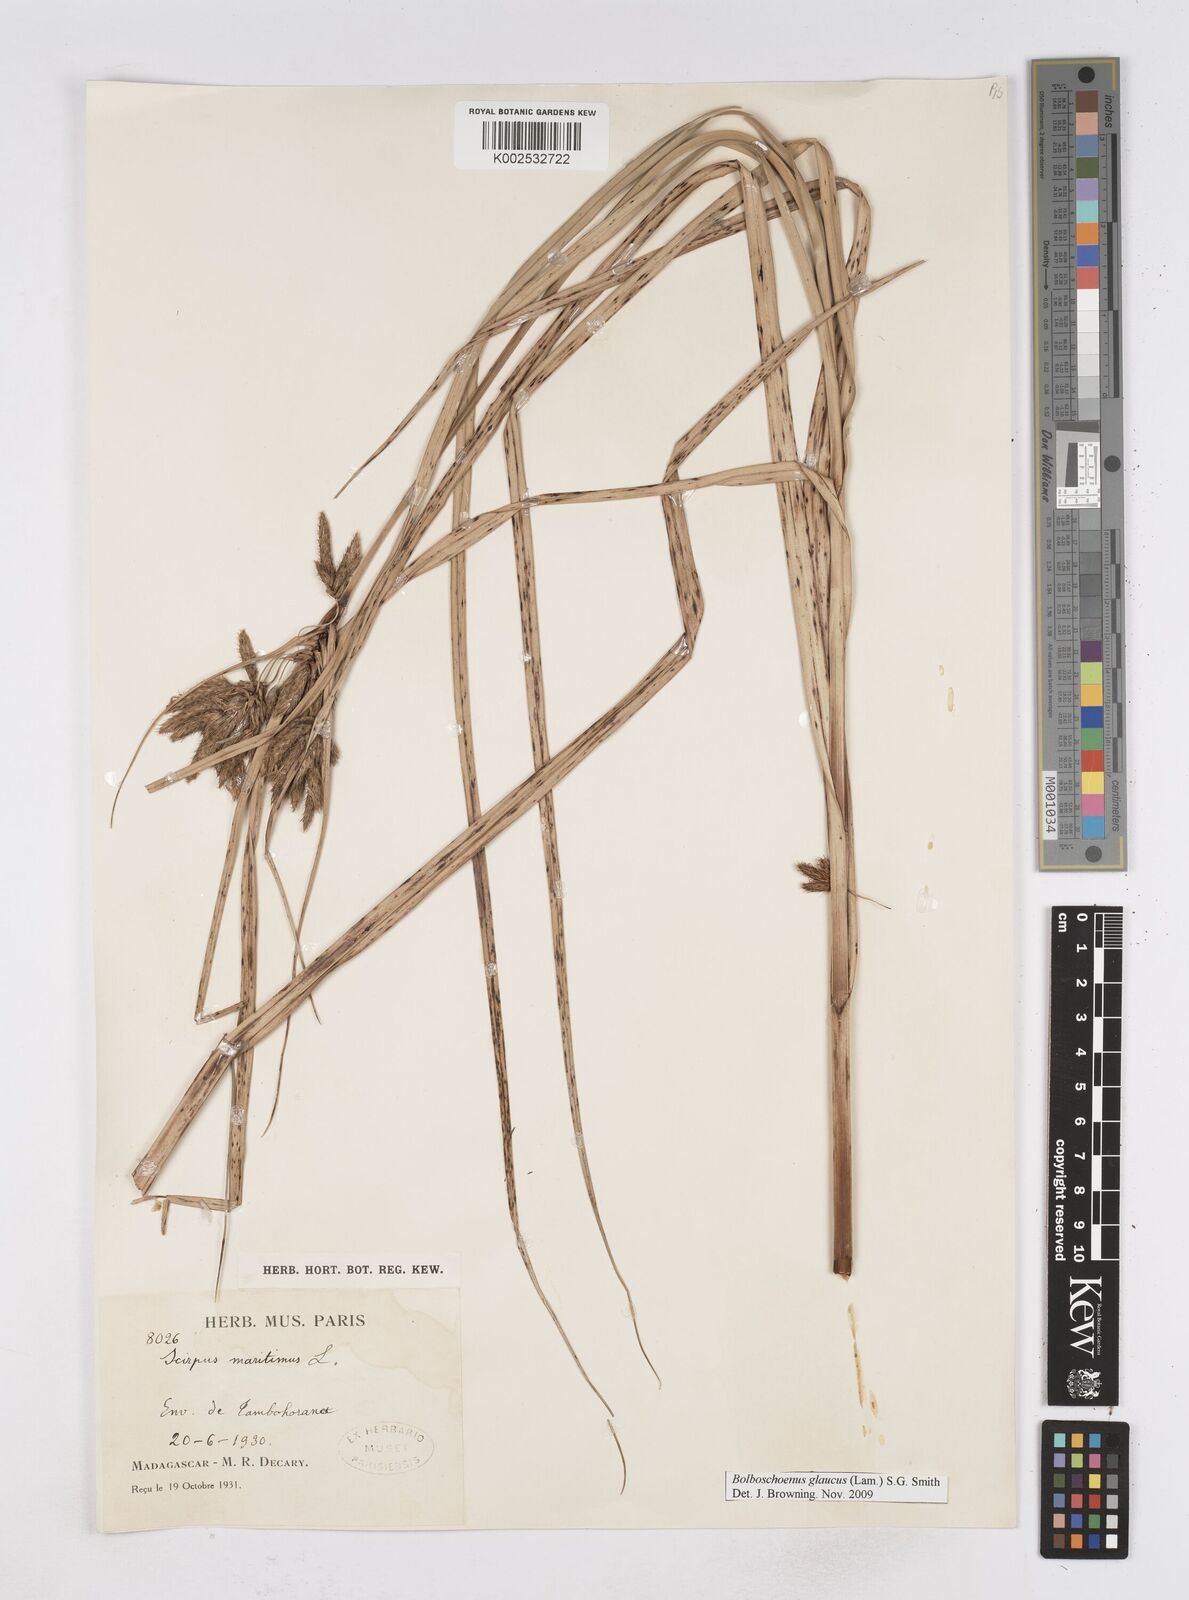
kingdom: Plantae
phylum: Tracheophyta
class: Liliopsida
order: Poales
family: Cyperaceae
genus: Bolboschoenus
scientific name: Bolboschoenus maritimus
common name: Sea club-rush
